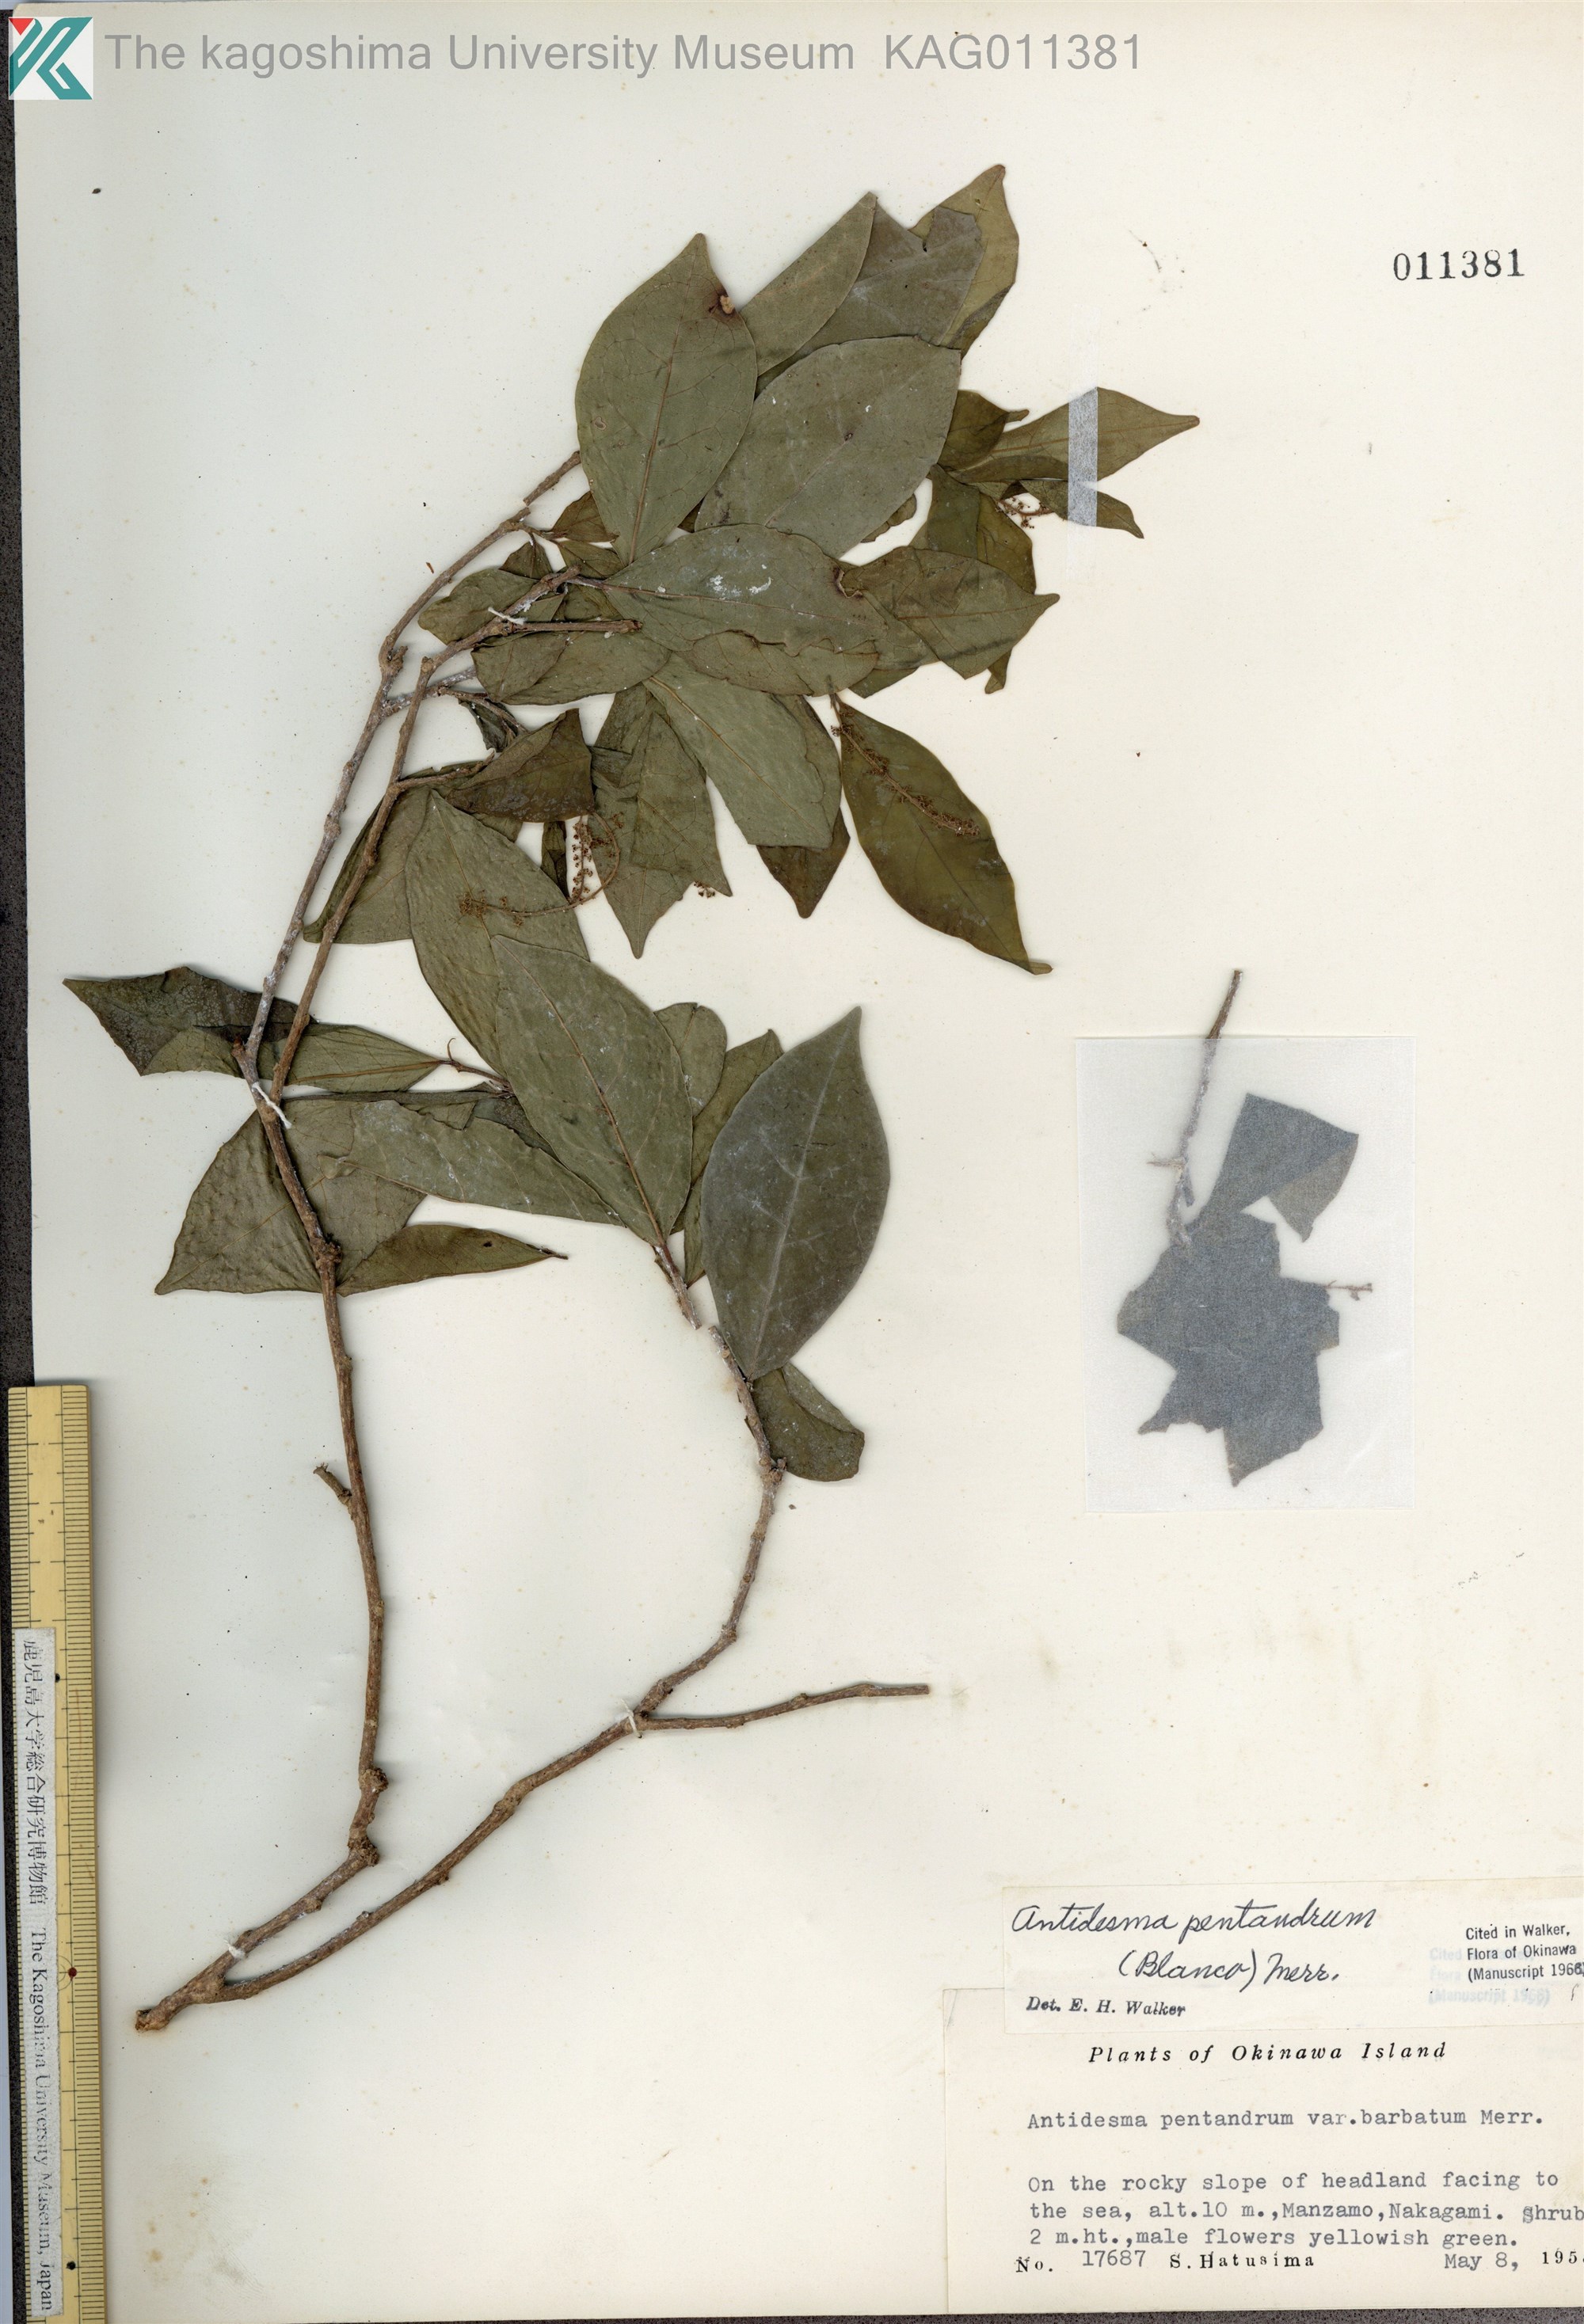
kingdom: Plantae
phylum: Tracheophyta
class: Magnoliopsida
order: Malpighiales
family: Phyllanthaceae
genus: Antidesma
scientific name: Antidesma montanum
